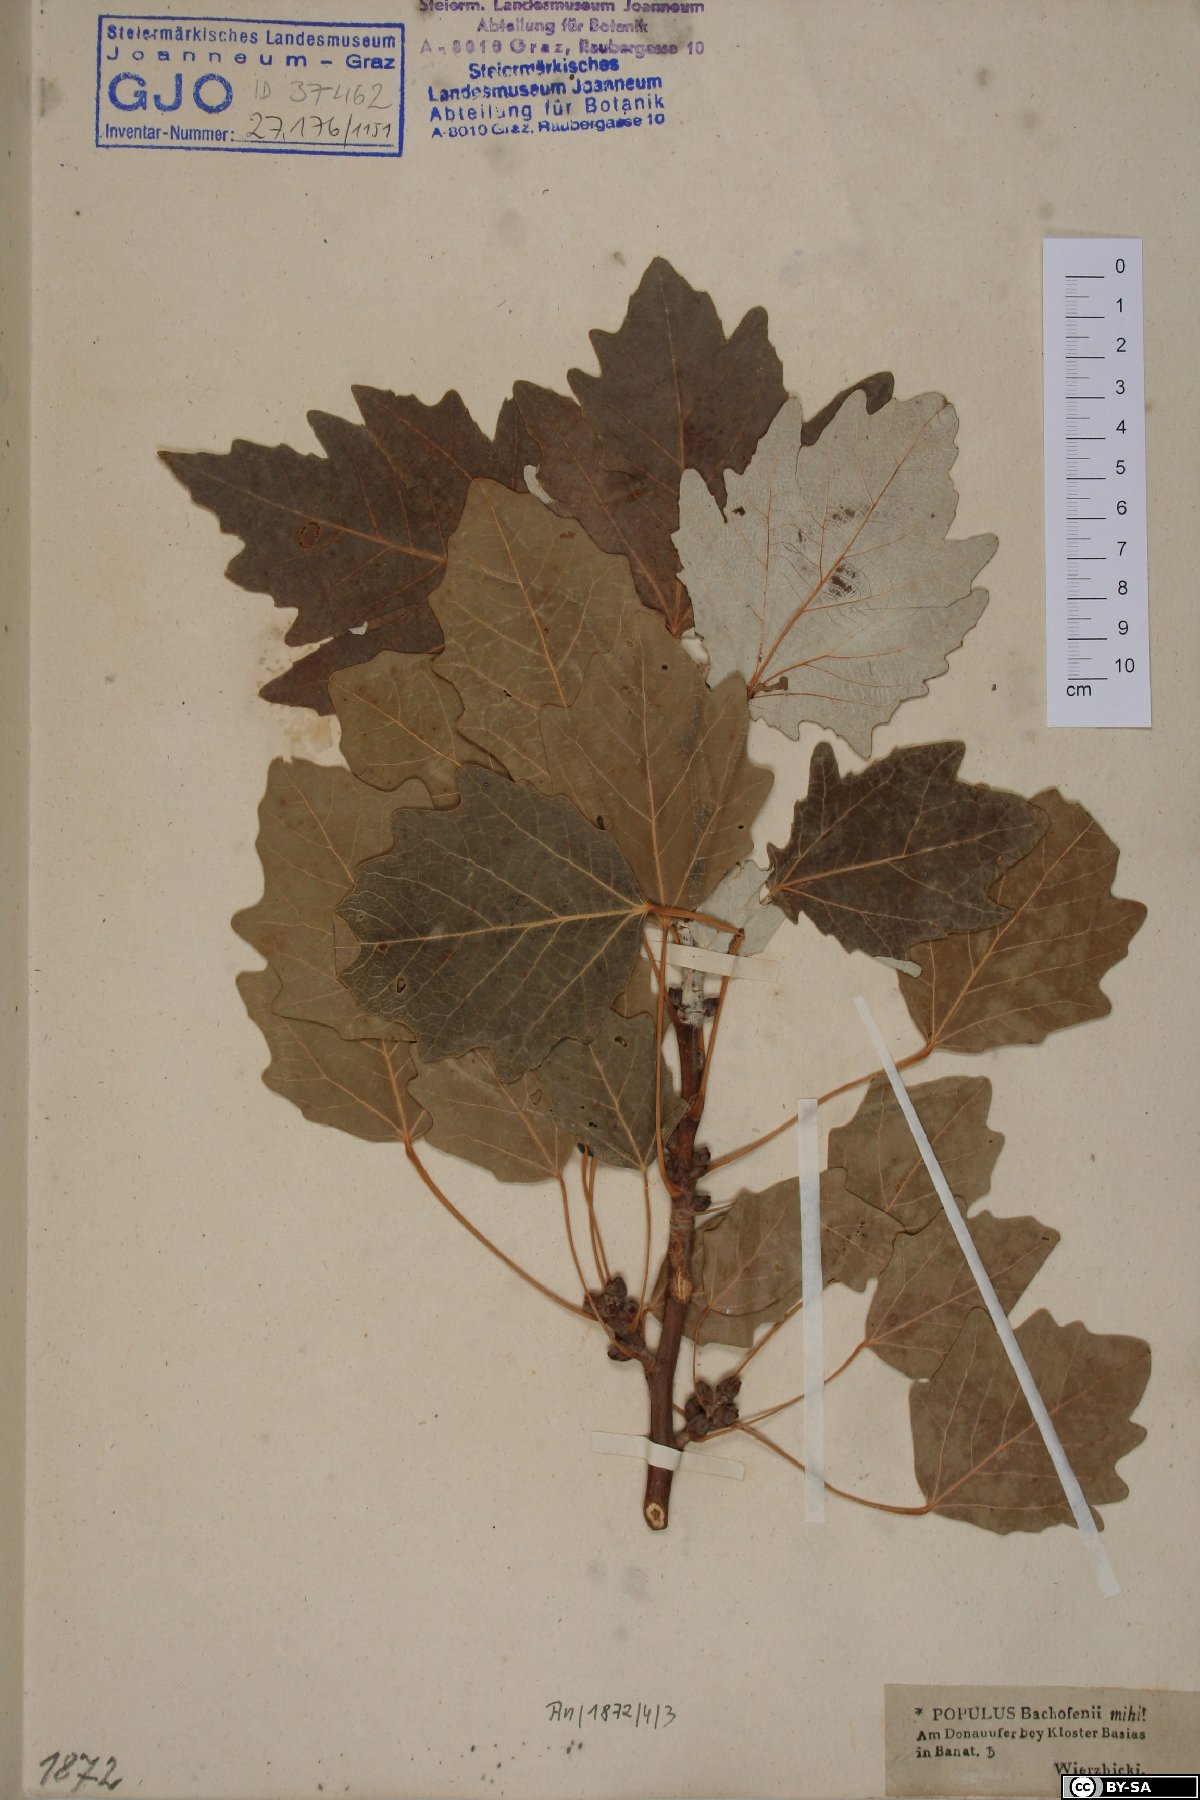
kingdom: Plantae
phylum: Tracheophyta
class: Magnoliopsida
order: Malpighiales
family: Salicaceae
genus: Populus
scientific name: Populus alba
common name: White poplar
